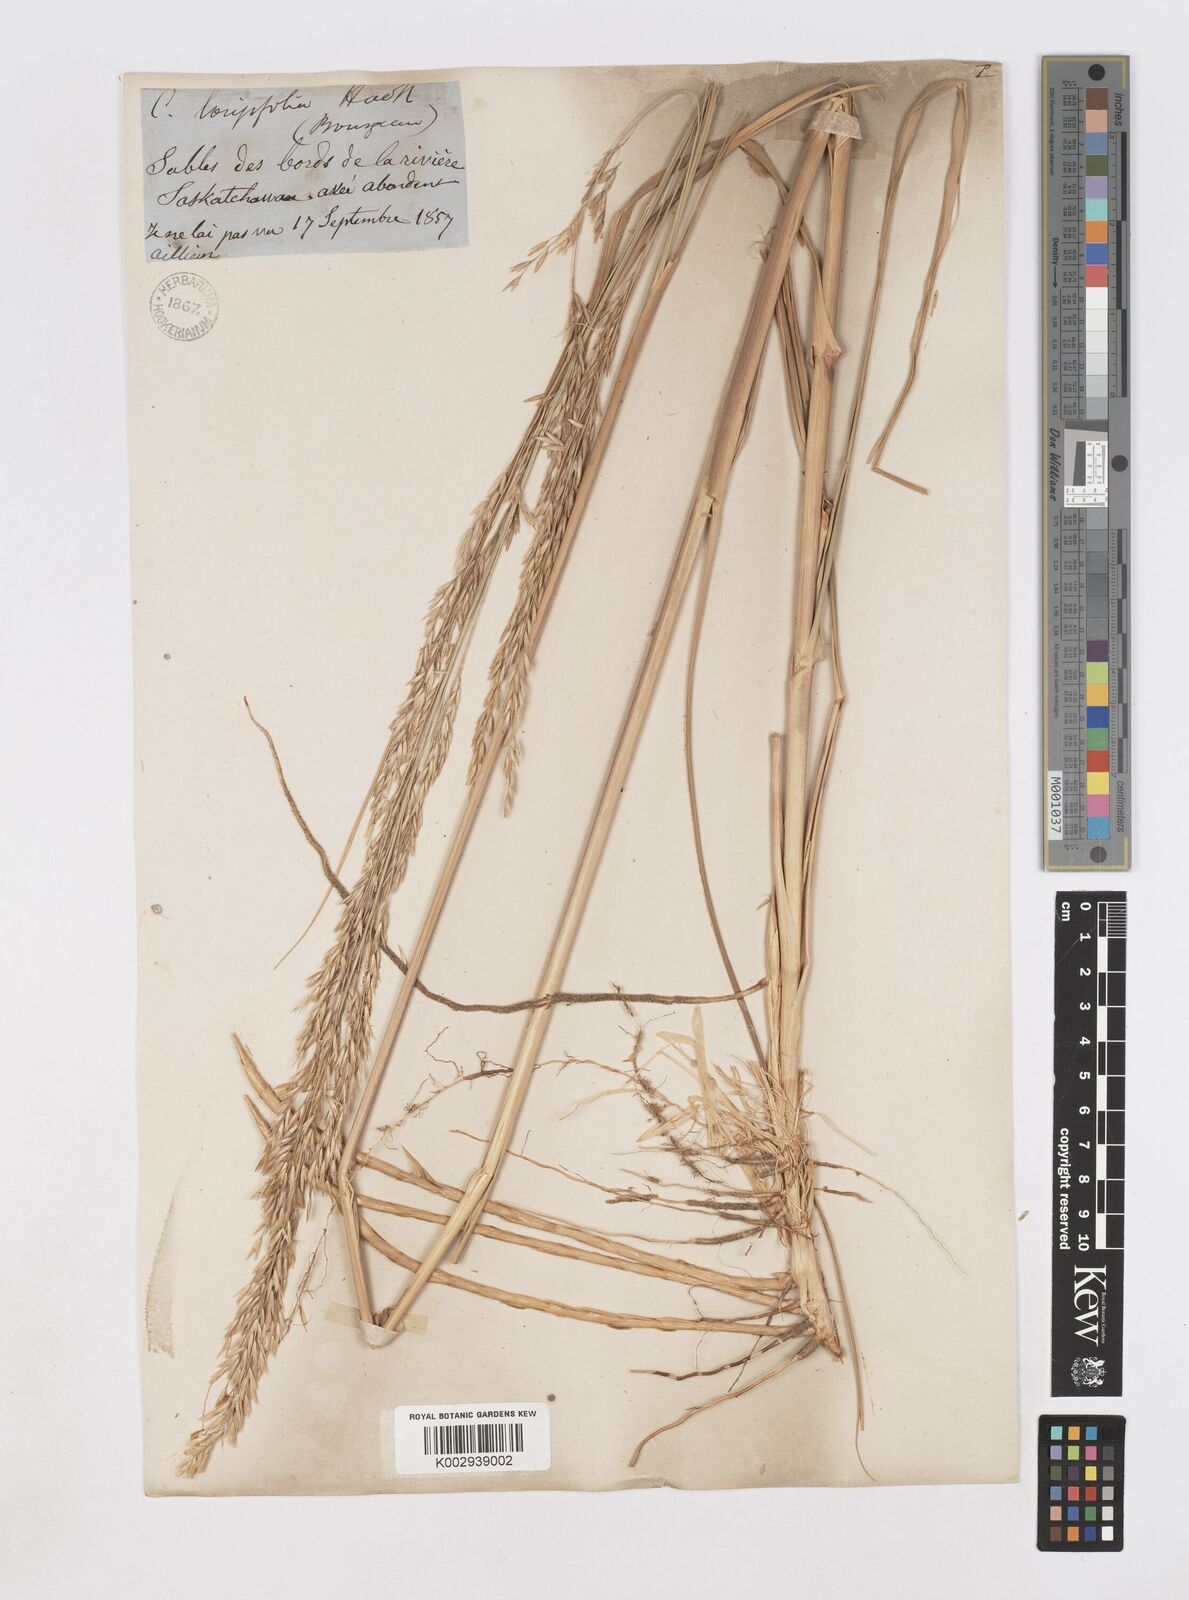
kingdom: Plantae
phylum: Tracheophyta
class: Liliopsida
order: Poales
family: Poaceae
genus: Sporobolus
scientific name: Sporobolus rigidus
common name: Prairie sandreed
